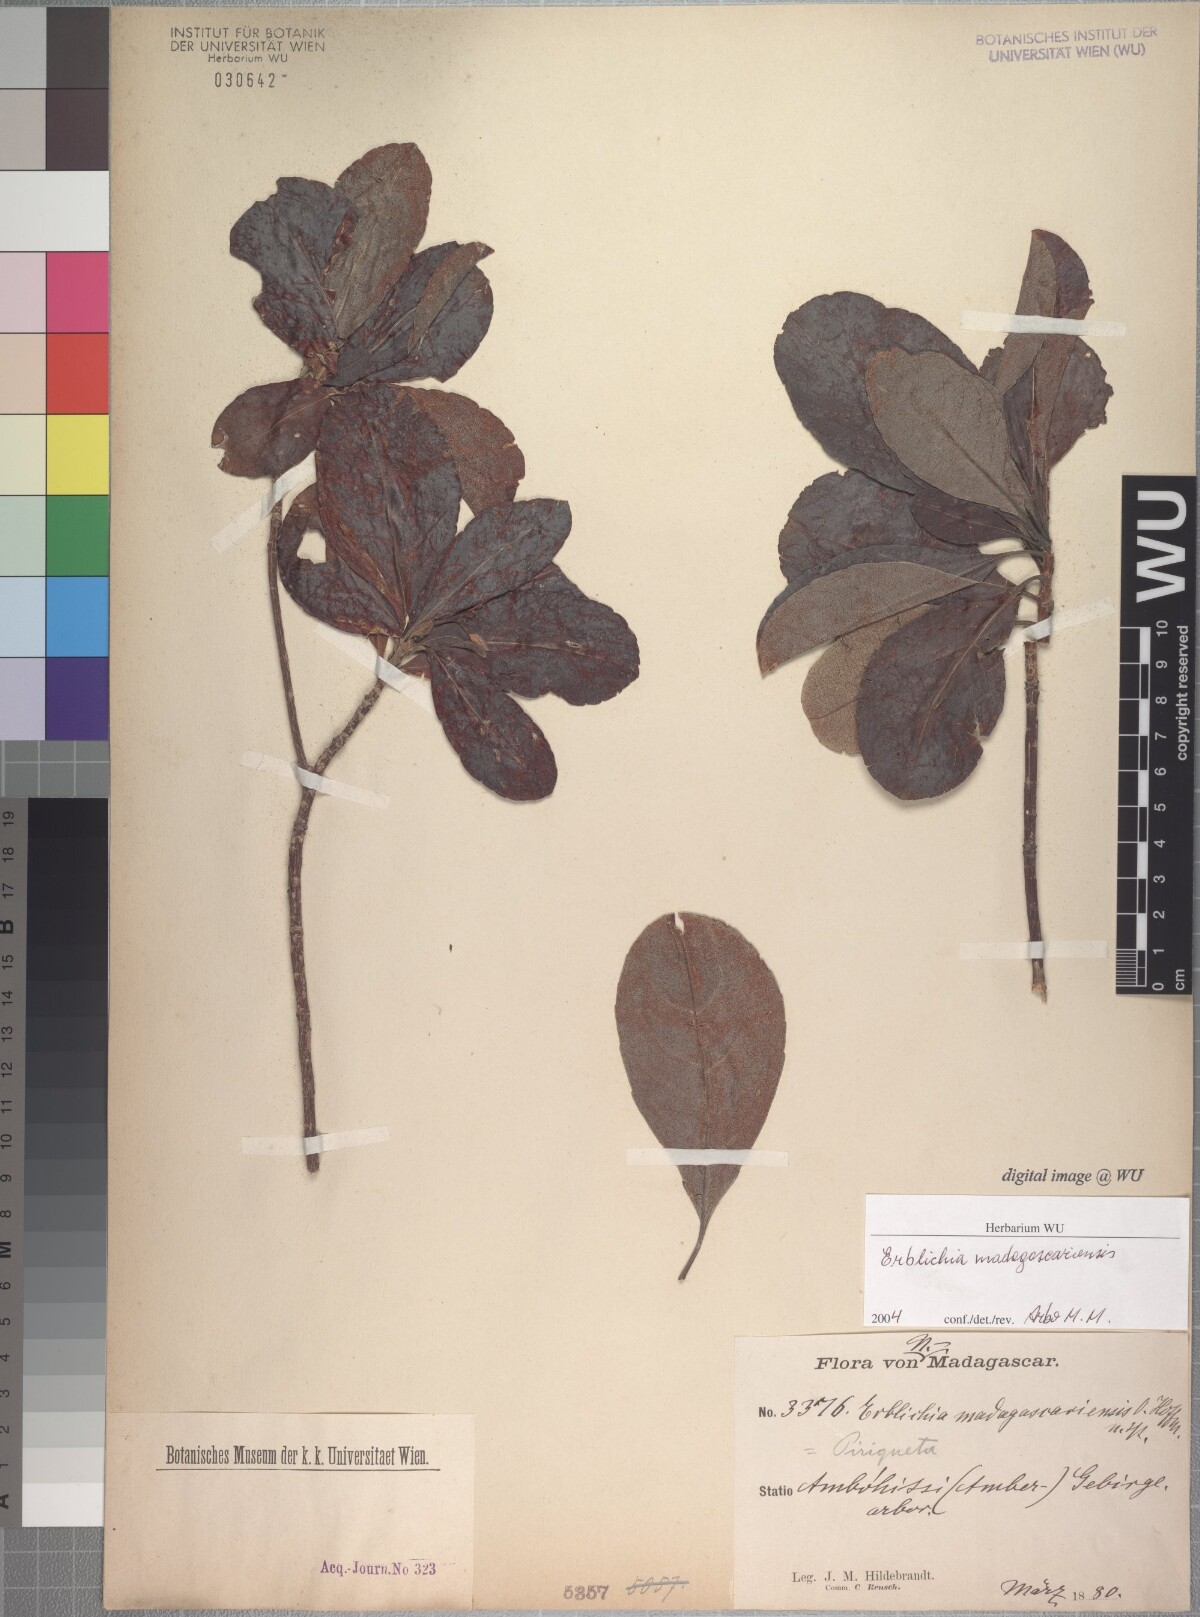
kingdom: Plantae
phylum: Tracheophyta
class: Magnoliopsida
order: Malpighiales
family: Turneraceae
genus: Arboa
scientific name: Arboa madagascariensis
